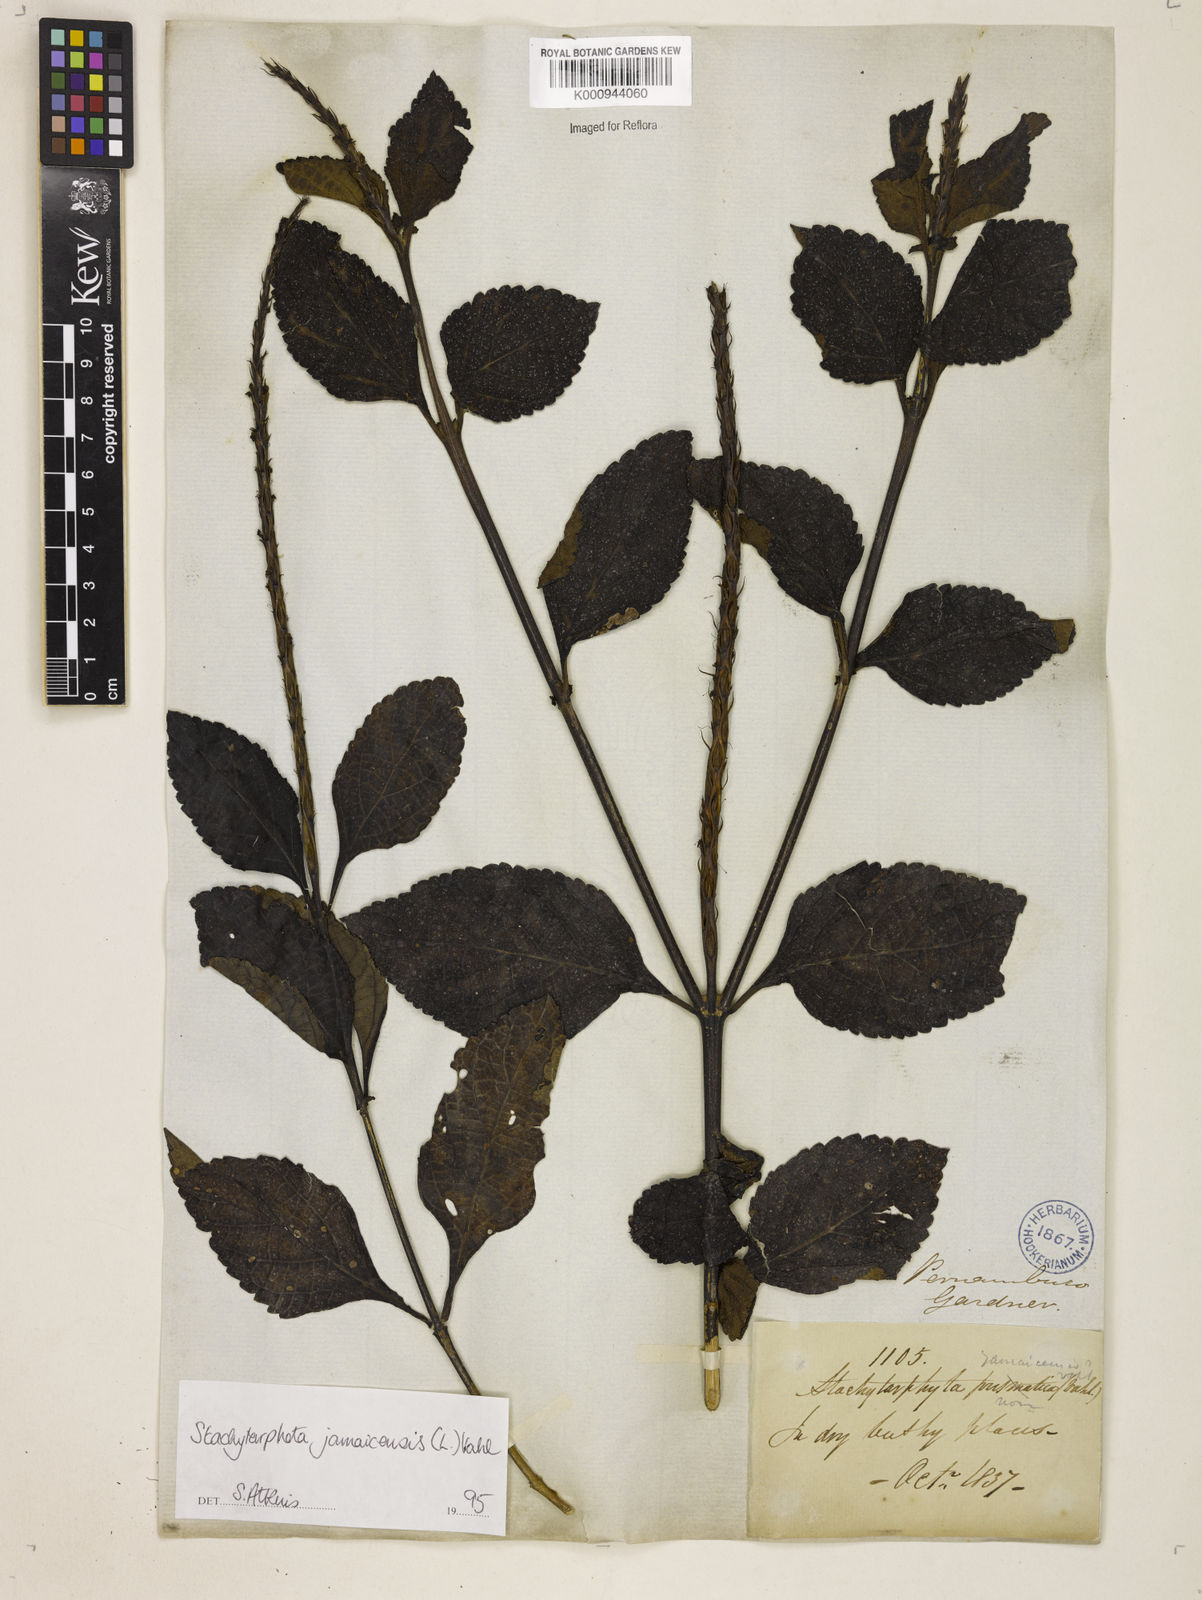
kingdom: Plantae
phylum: Tracheophyta
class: Magnoliopsida
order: Lamiales
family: Verbenaceae
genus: Stachytarpheta
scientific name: Stachytarpheta jamaicensis
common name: Light-blue snakeweed
